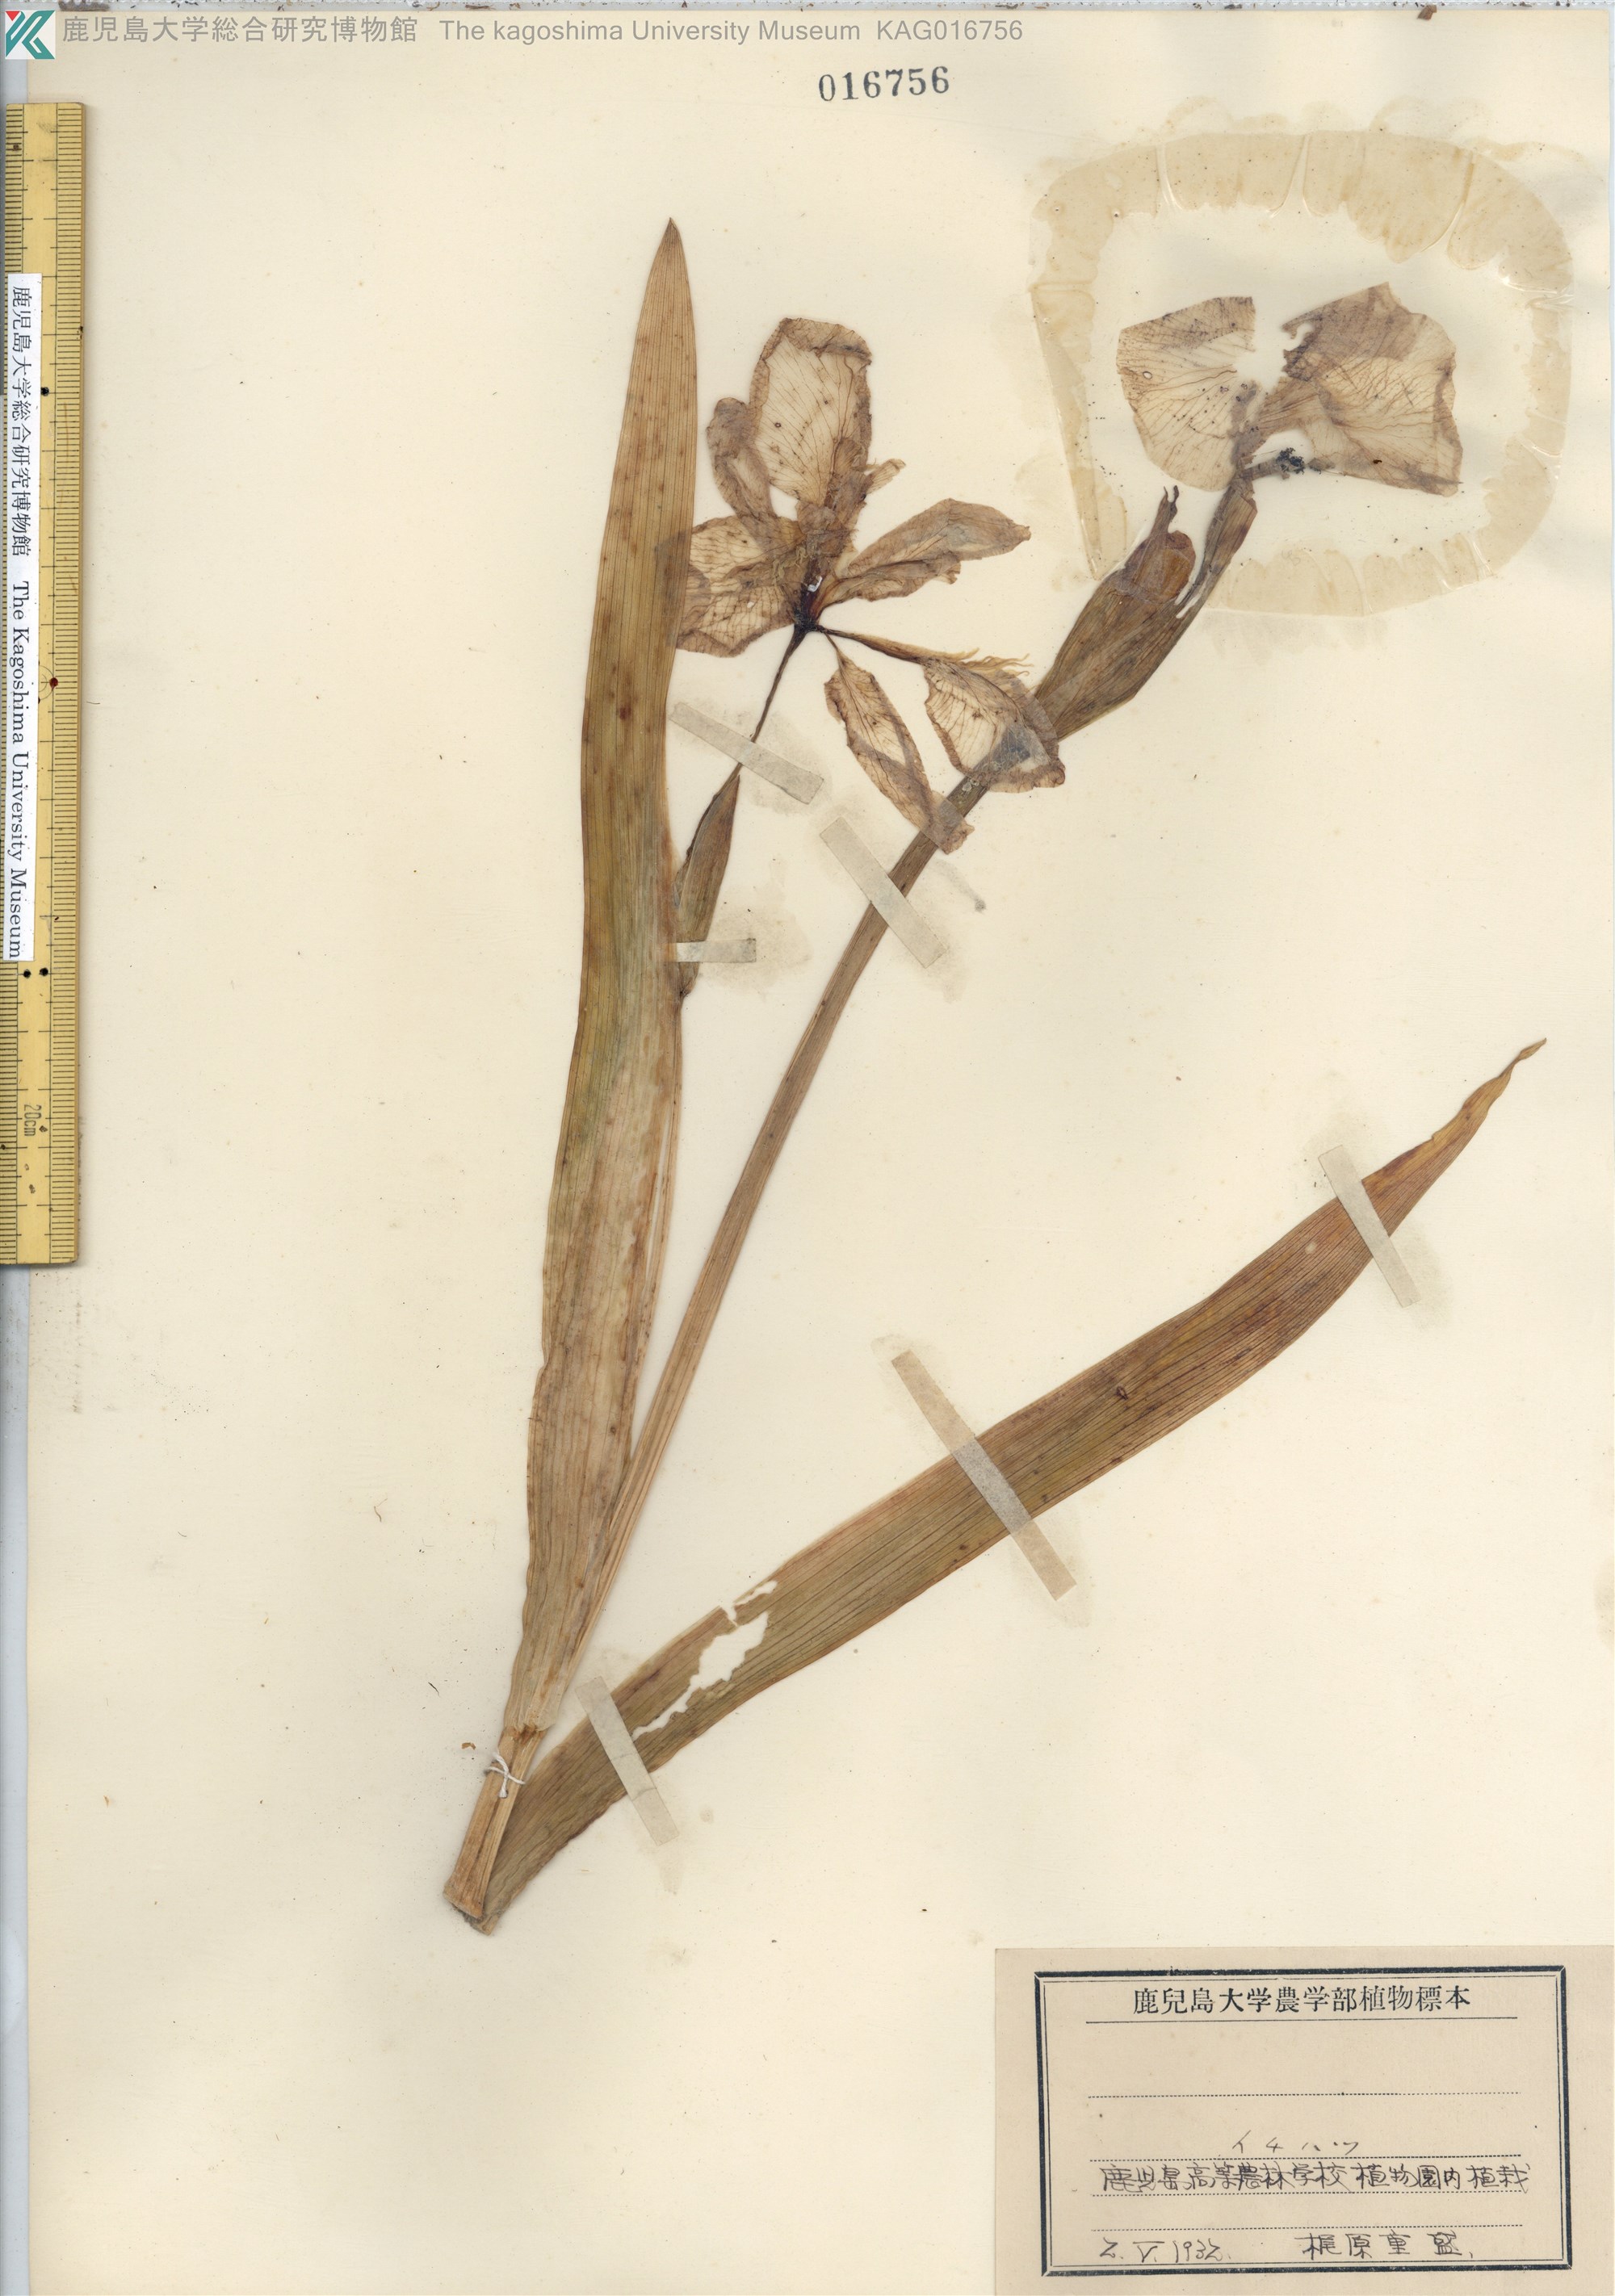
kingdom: Plantae
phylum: Tracheophyta
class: Liliopsida
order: Asparagales
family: Iridaceae
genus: Iris
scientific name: Iris tectorum
